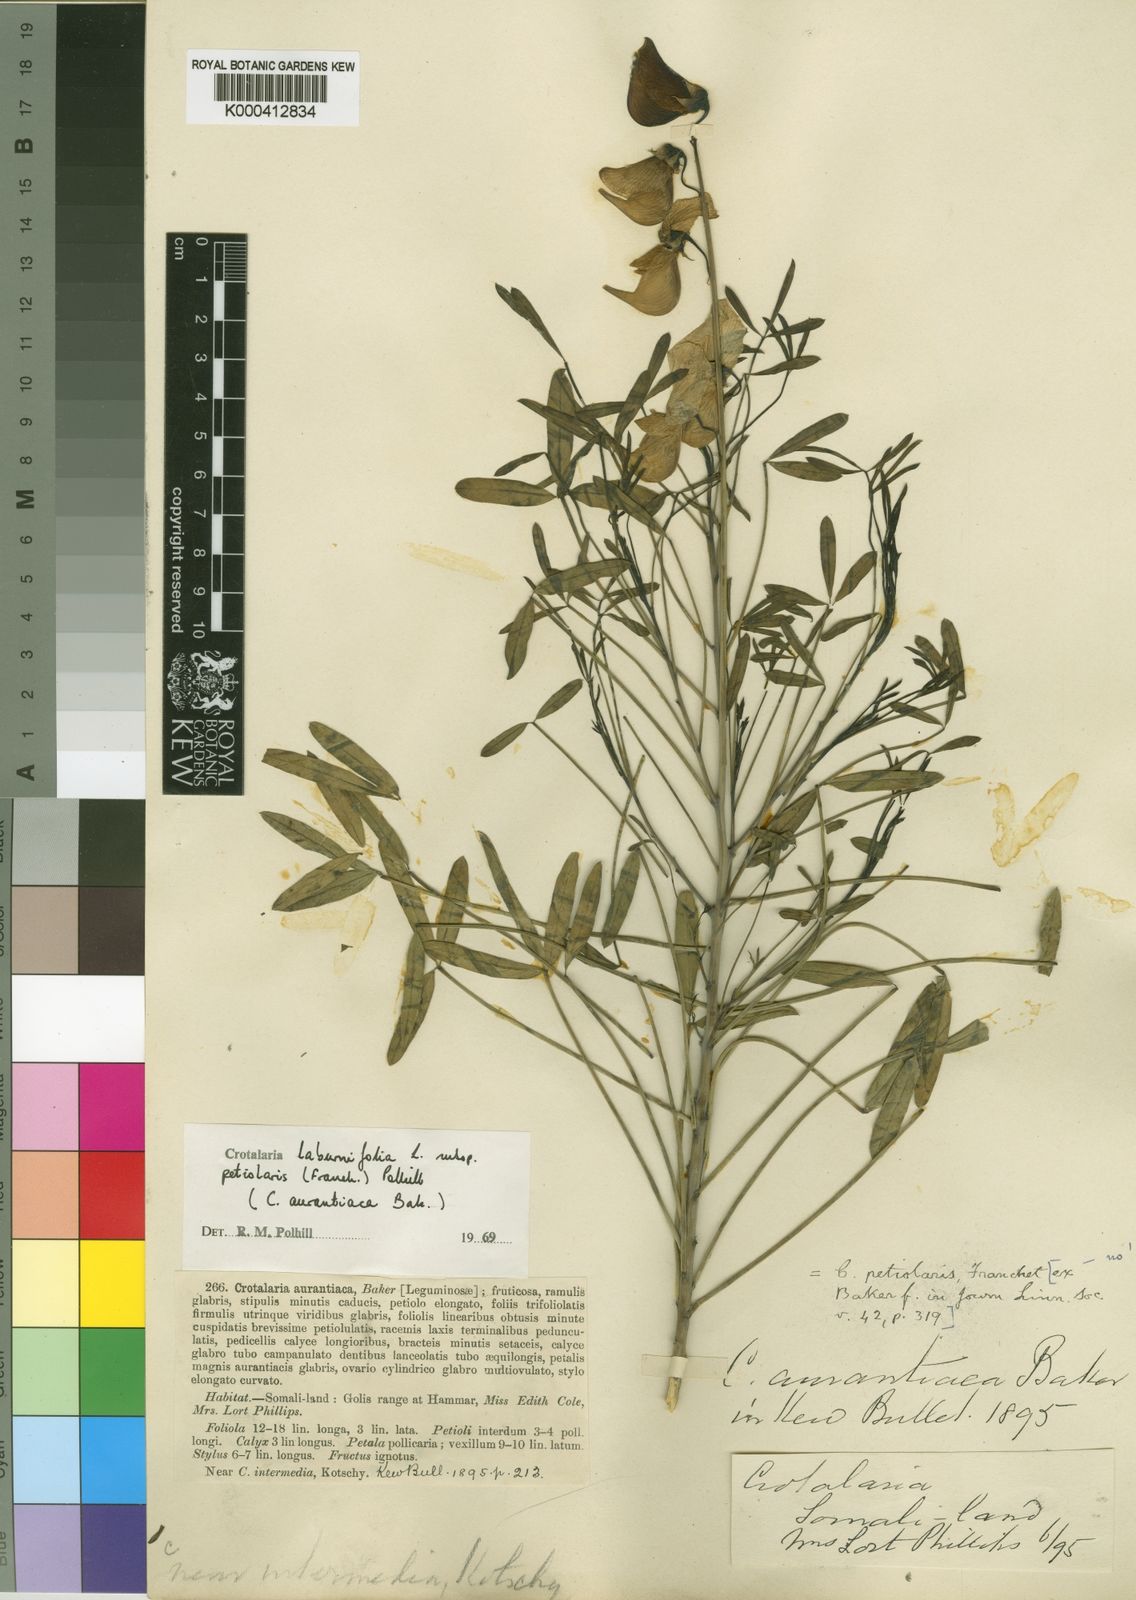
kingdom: Plantae
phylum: Tracheophyta
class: Magnoliopsida
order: Fabales
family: Fabaceae
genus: Crotalaria
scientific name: Crotalaria laburnifolia
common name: Birdflower
